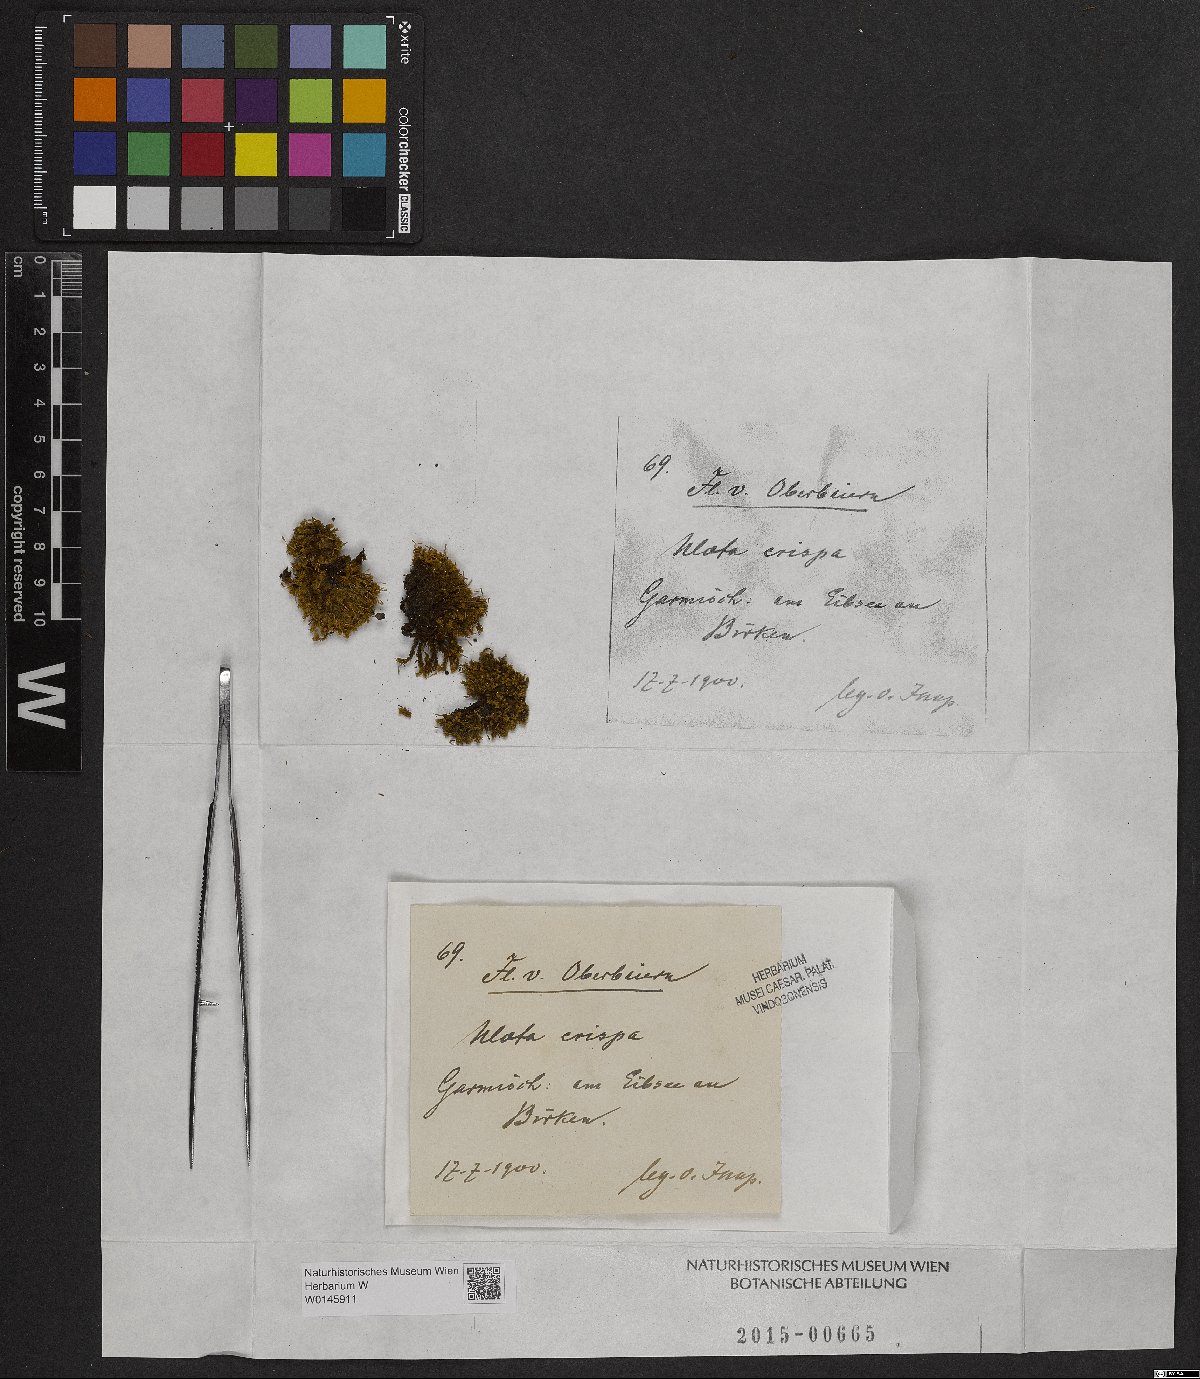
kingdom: Plantae
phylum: Bryophyta
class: Bryopsida
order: Orthotrichales
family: Orthotrichaceae
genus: Ulota
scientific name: Ulota crispa
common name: Crisped pincushion moss
